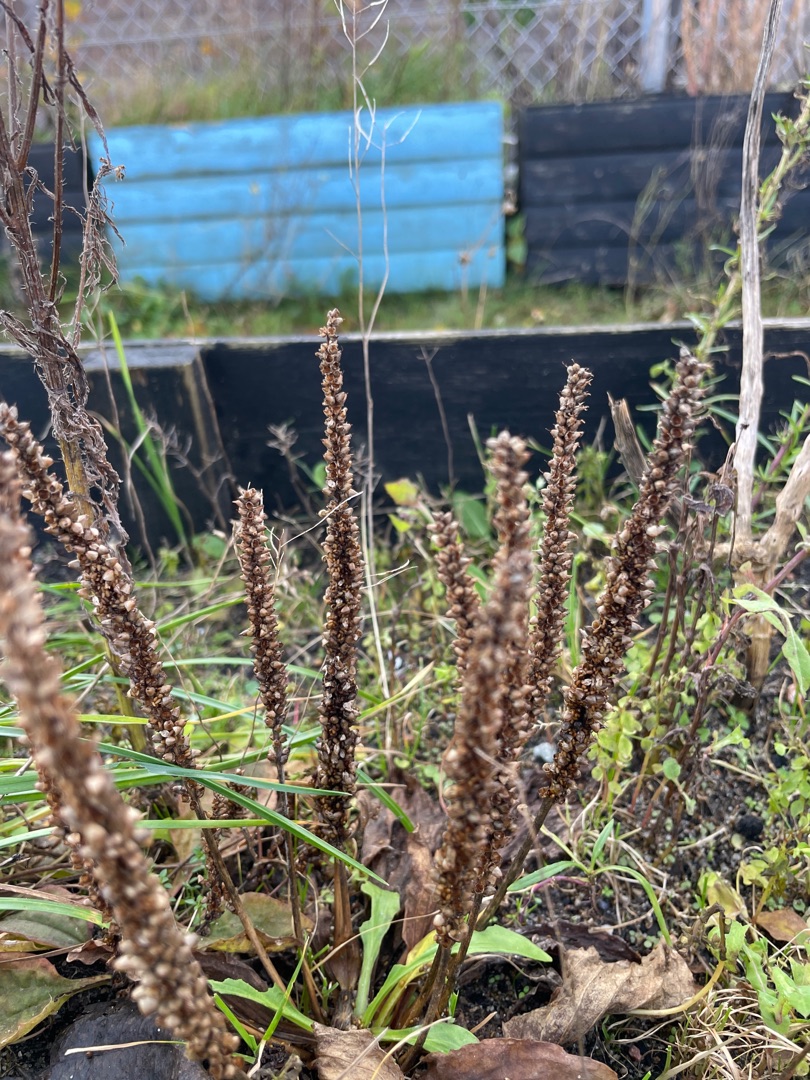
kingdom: Plantae
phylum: Tracheophyta
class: Magnoliopsida
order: Lamiales
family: Plantaginaceae
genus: Plantago
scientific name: Plantago major
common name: Glat vejbred
